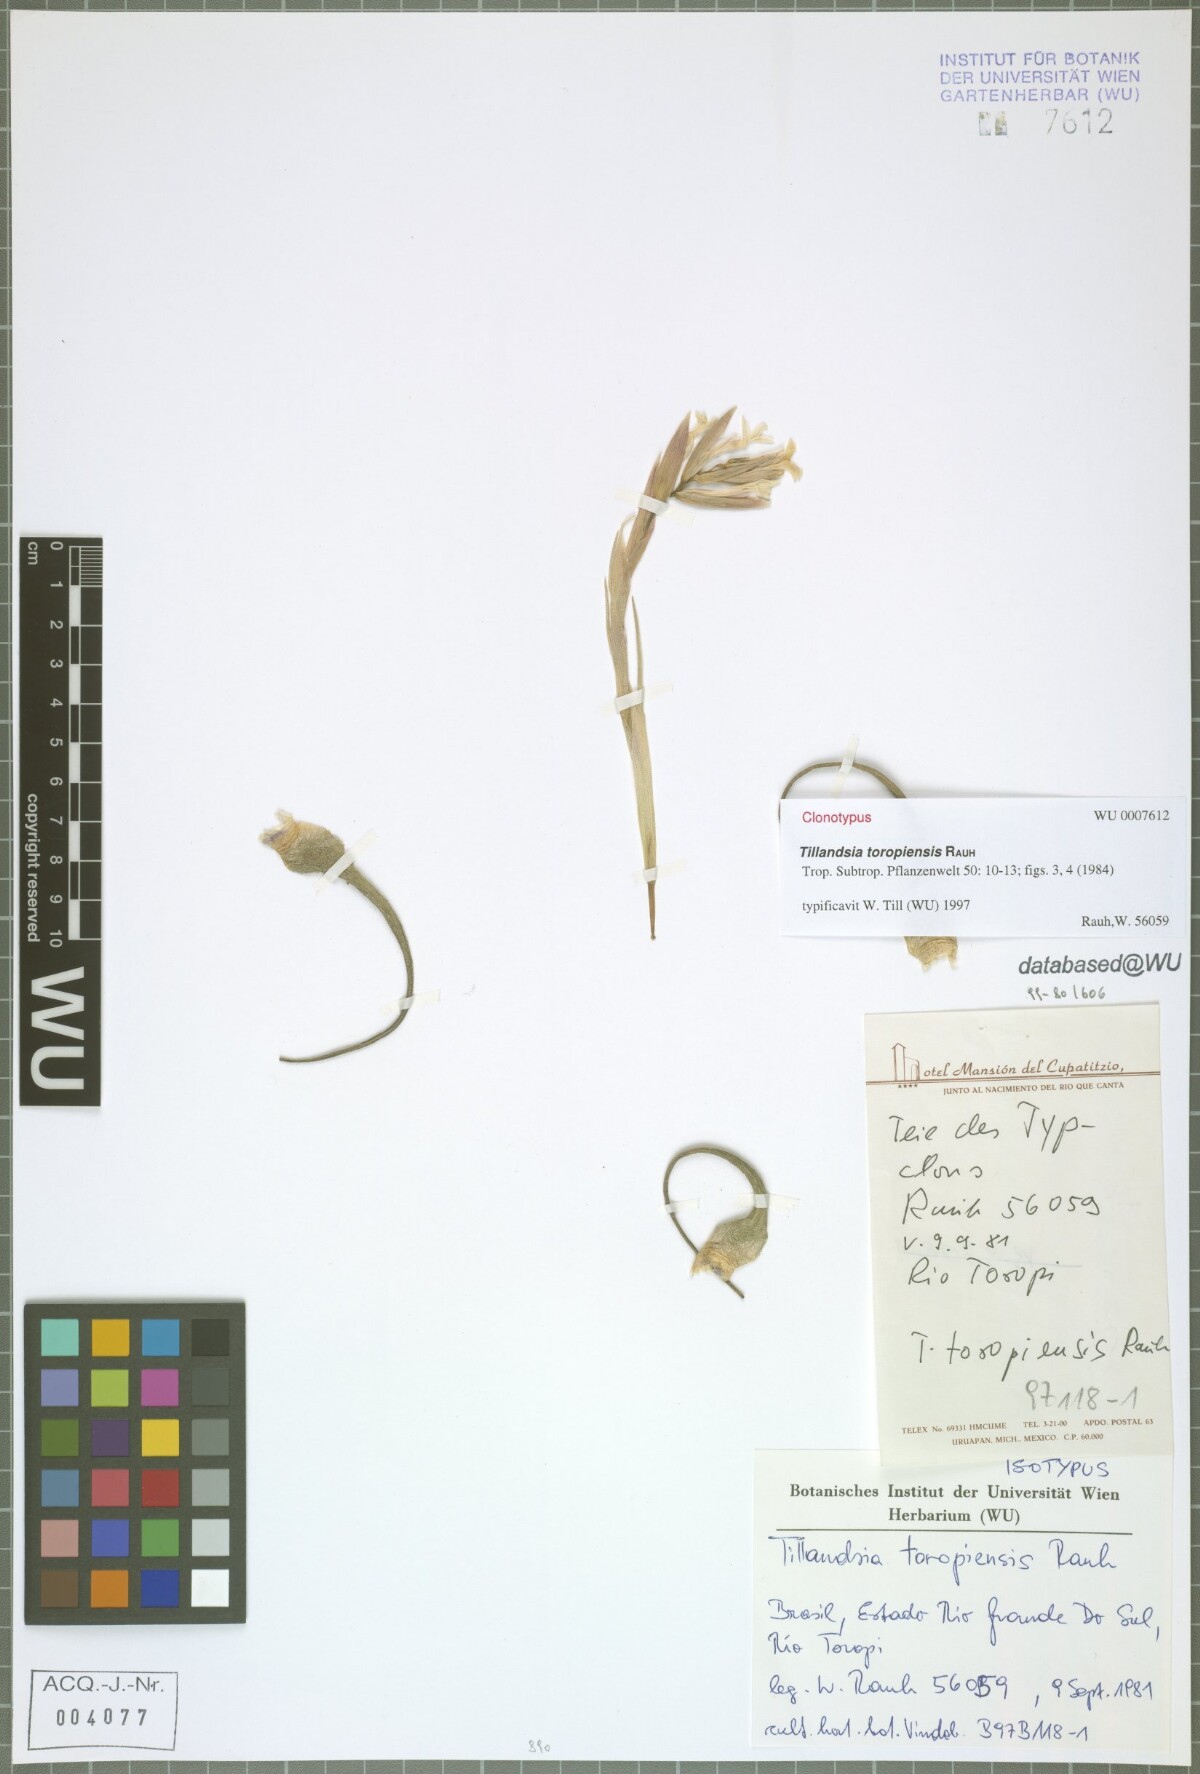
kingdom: Plantae
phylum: Tracheophyta
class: Liliopsida
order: Poales
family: Bromeliaceae
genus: Tillandsia
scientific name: Tillandsia toropiensis
